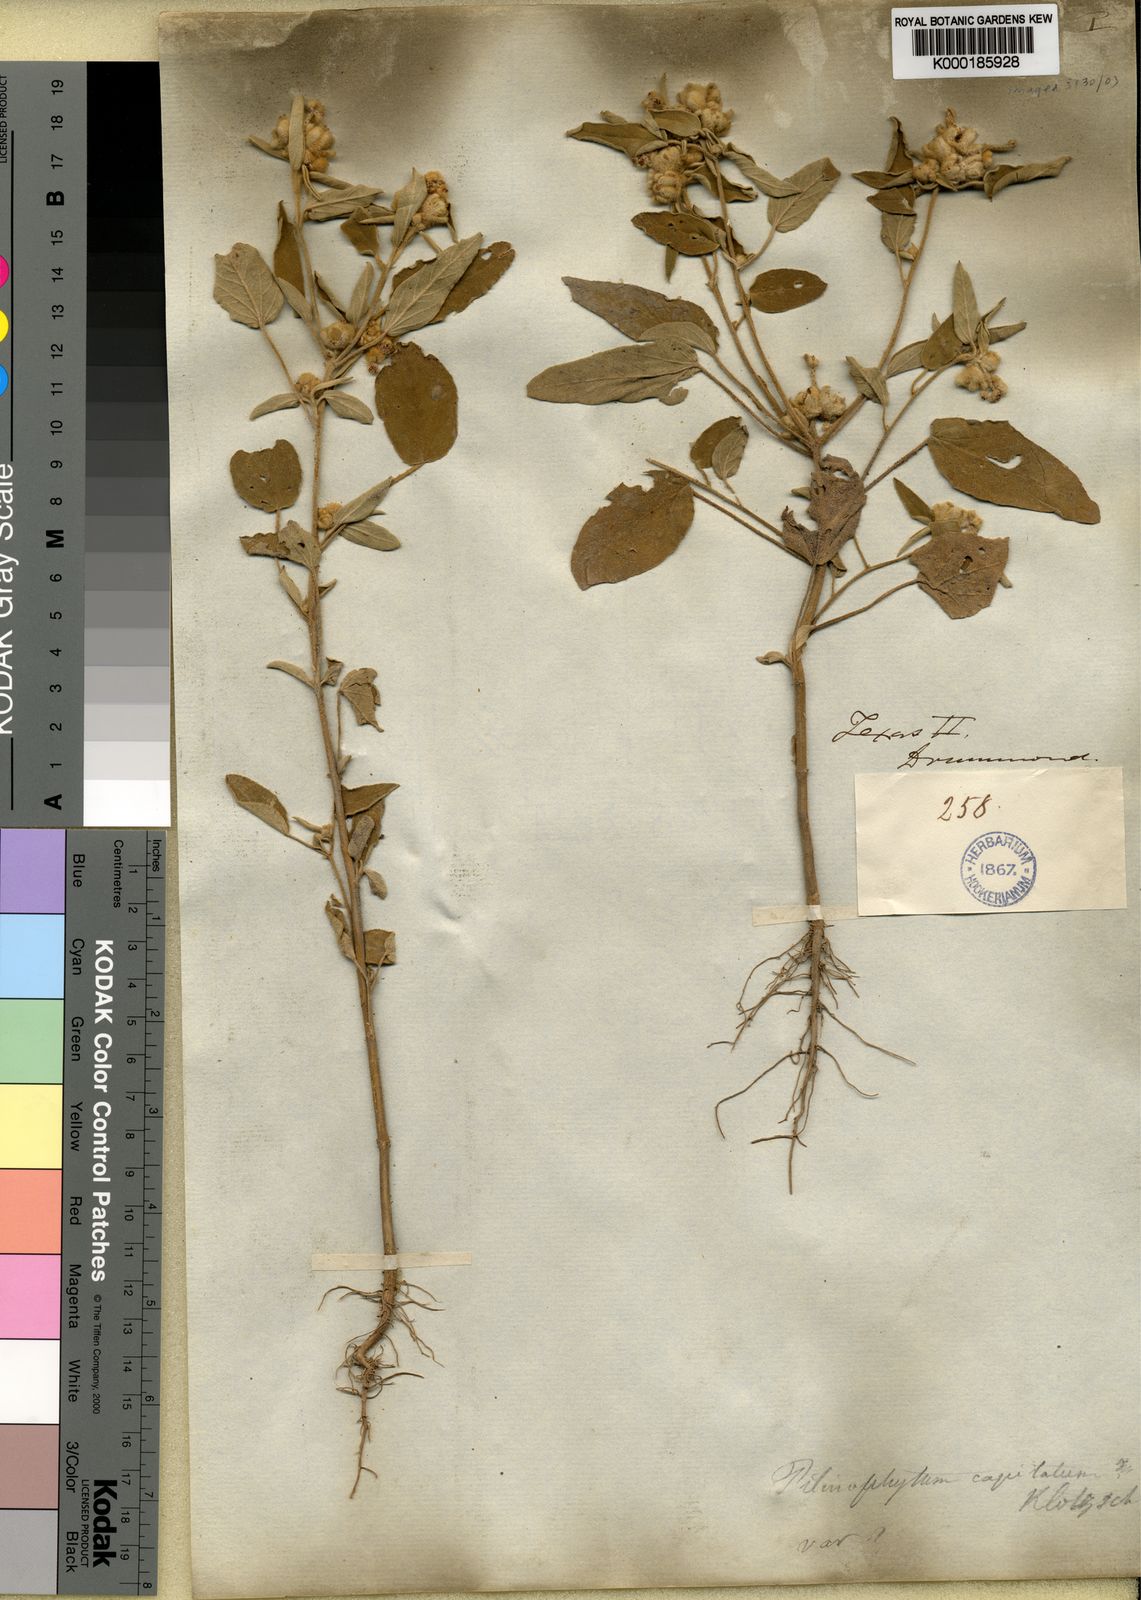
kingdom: Plantae
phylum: Tracheophyta
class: Magnoliopsida
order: Malpighiales
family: Euphorbiaceae
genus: Croton
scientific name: Croton capitatus
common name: Woolly croton
